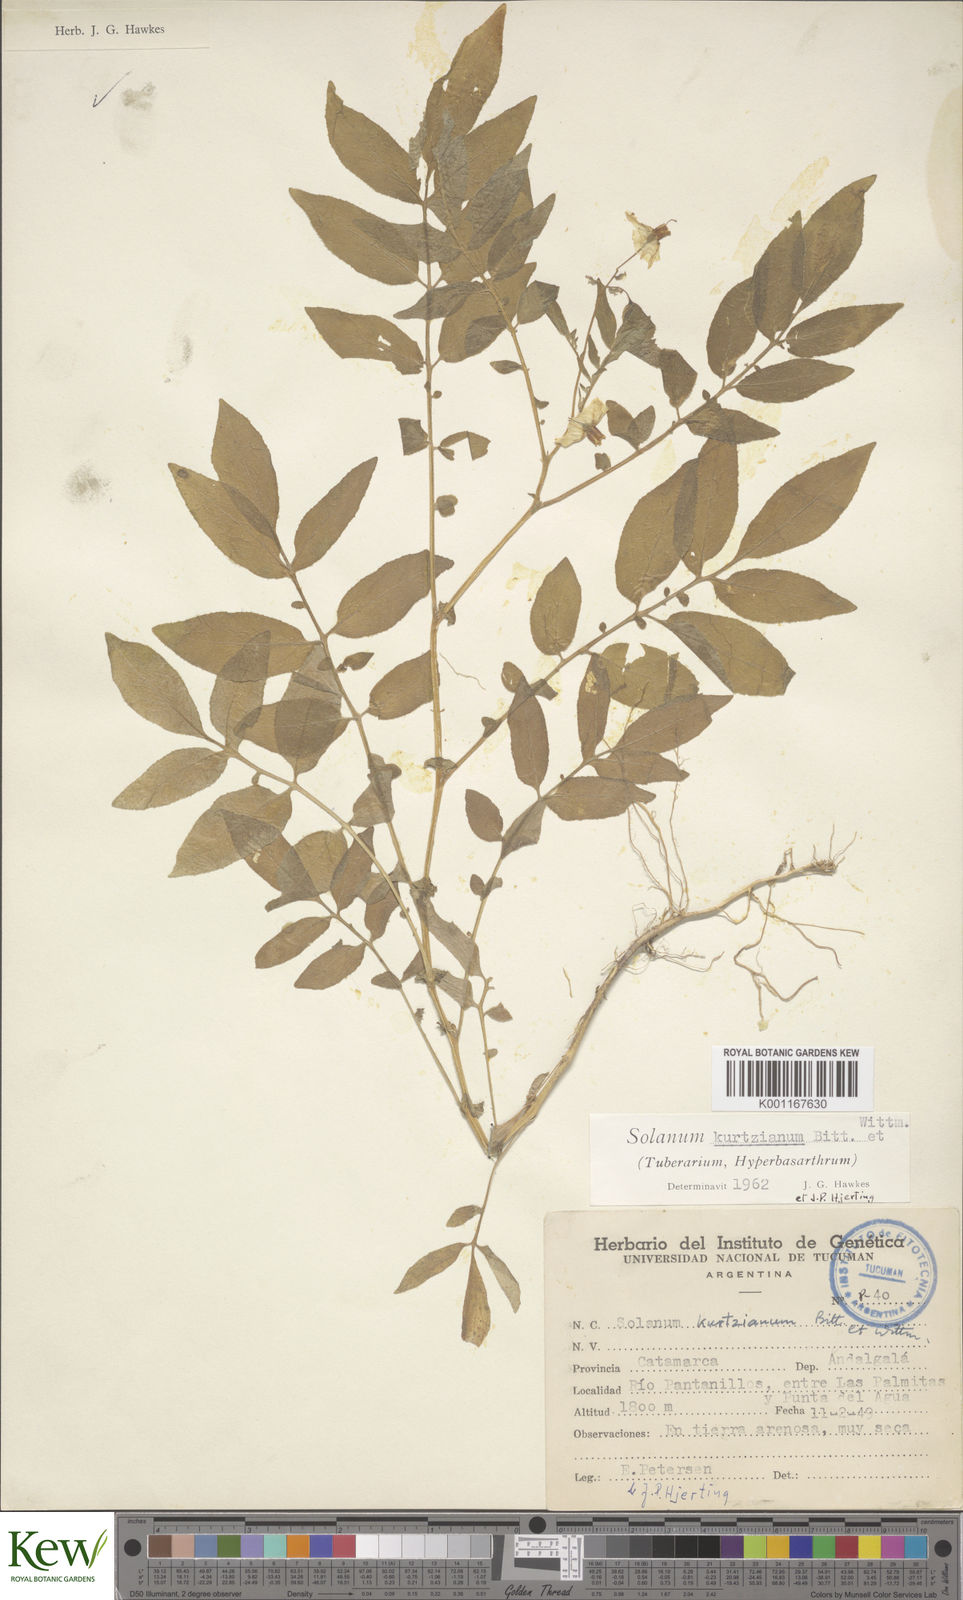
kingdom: Plantae
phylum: Tracheophyta
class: Magnoliopsida
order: Solanales
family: Solanaceae
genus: Solanum
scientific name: Solanum kurtzianum
